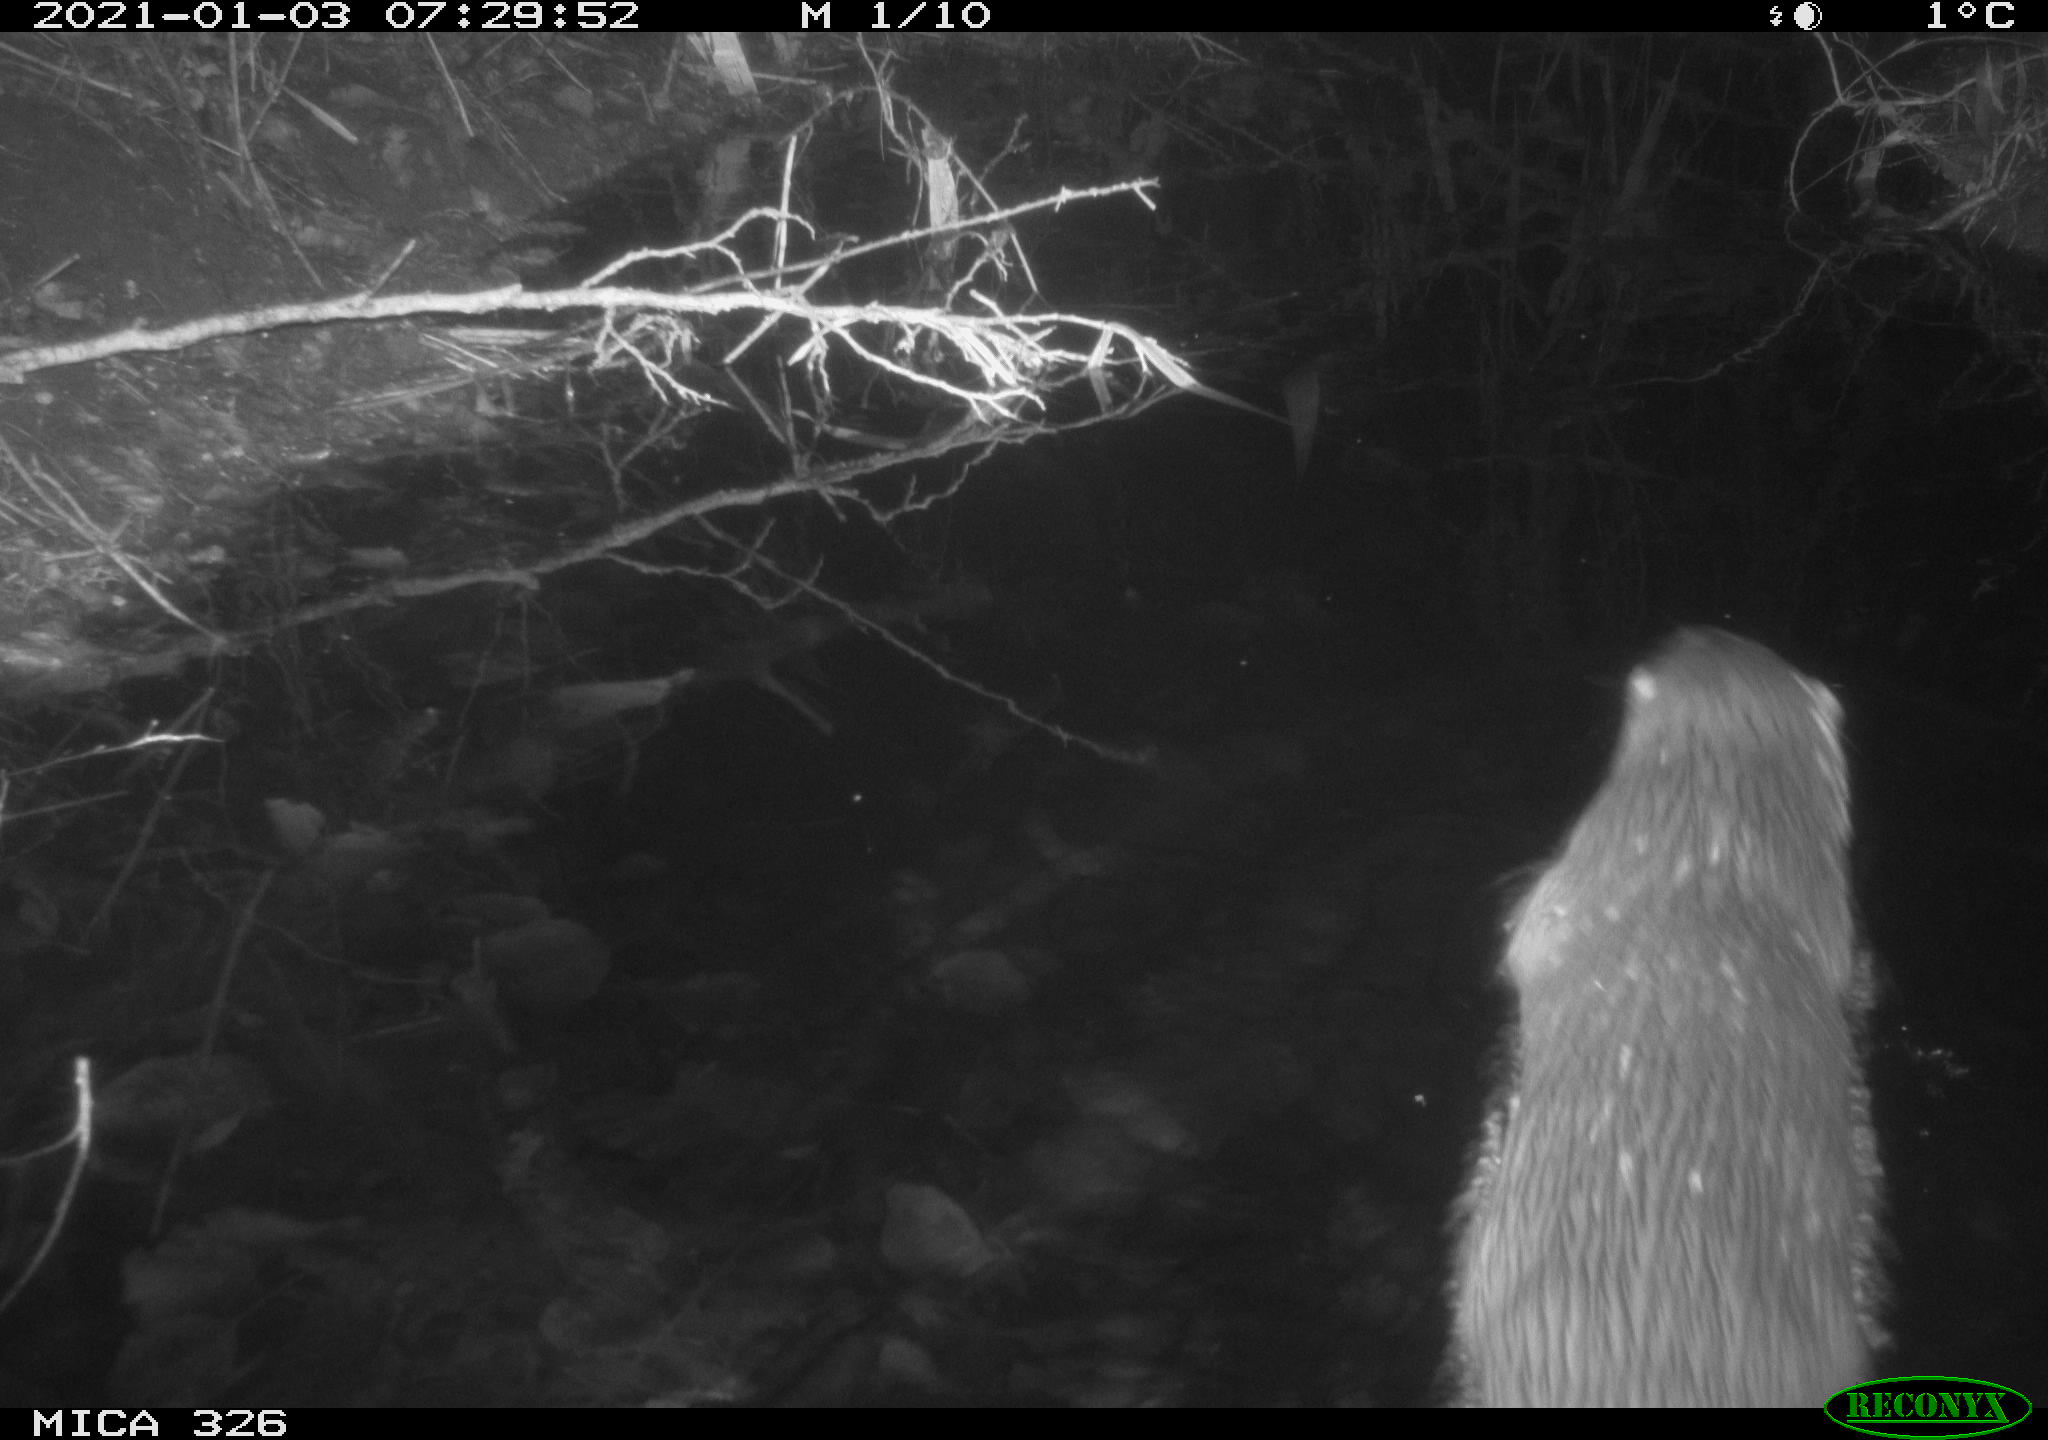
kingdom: Animalia
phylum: Chordata
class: Mammalia
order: Carnivora
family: Mustelidae
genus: Lutra
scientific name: Lutra lutra
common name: European otter
